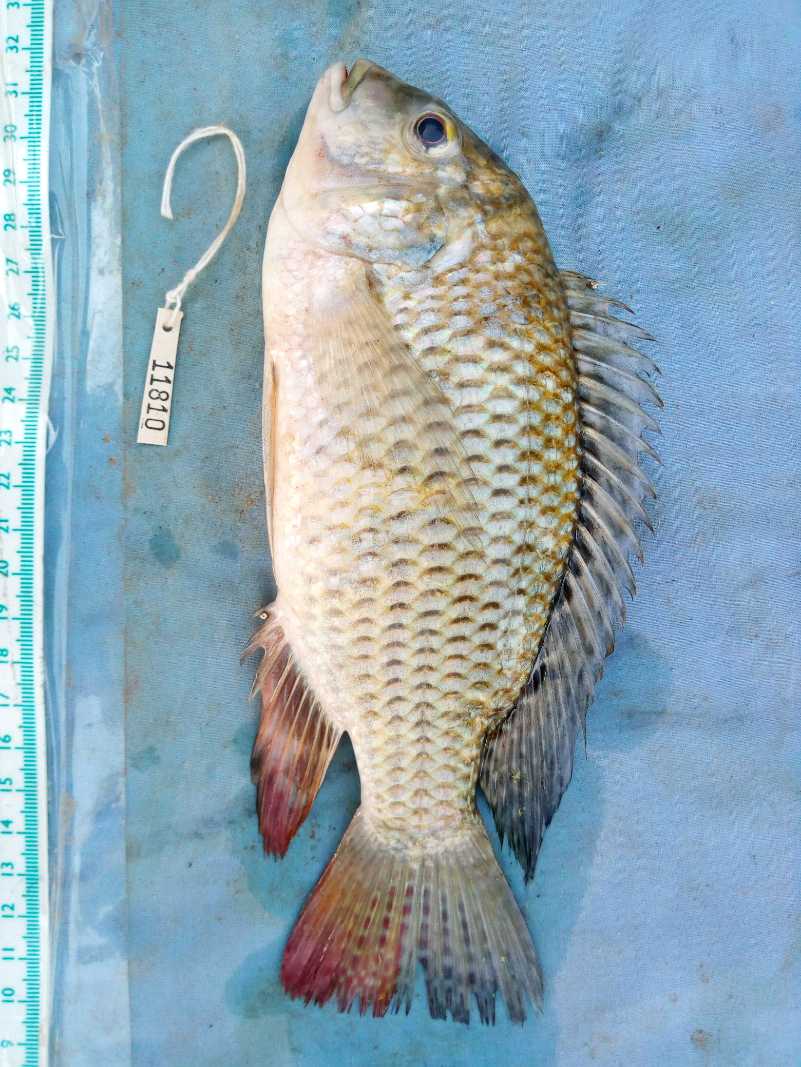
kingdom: Animalia
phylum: Chordata
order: Perciformes
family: Cichlidae
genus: Coptodon
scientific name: Coptodon rendalli
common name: Redbreast tilapia
